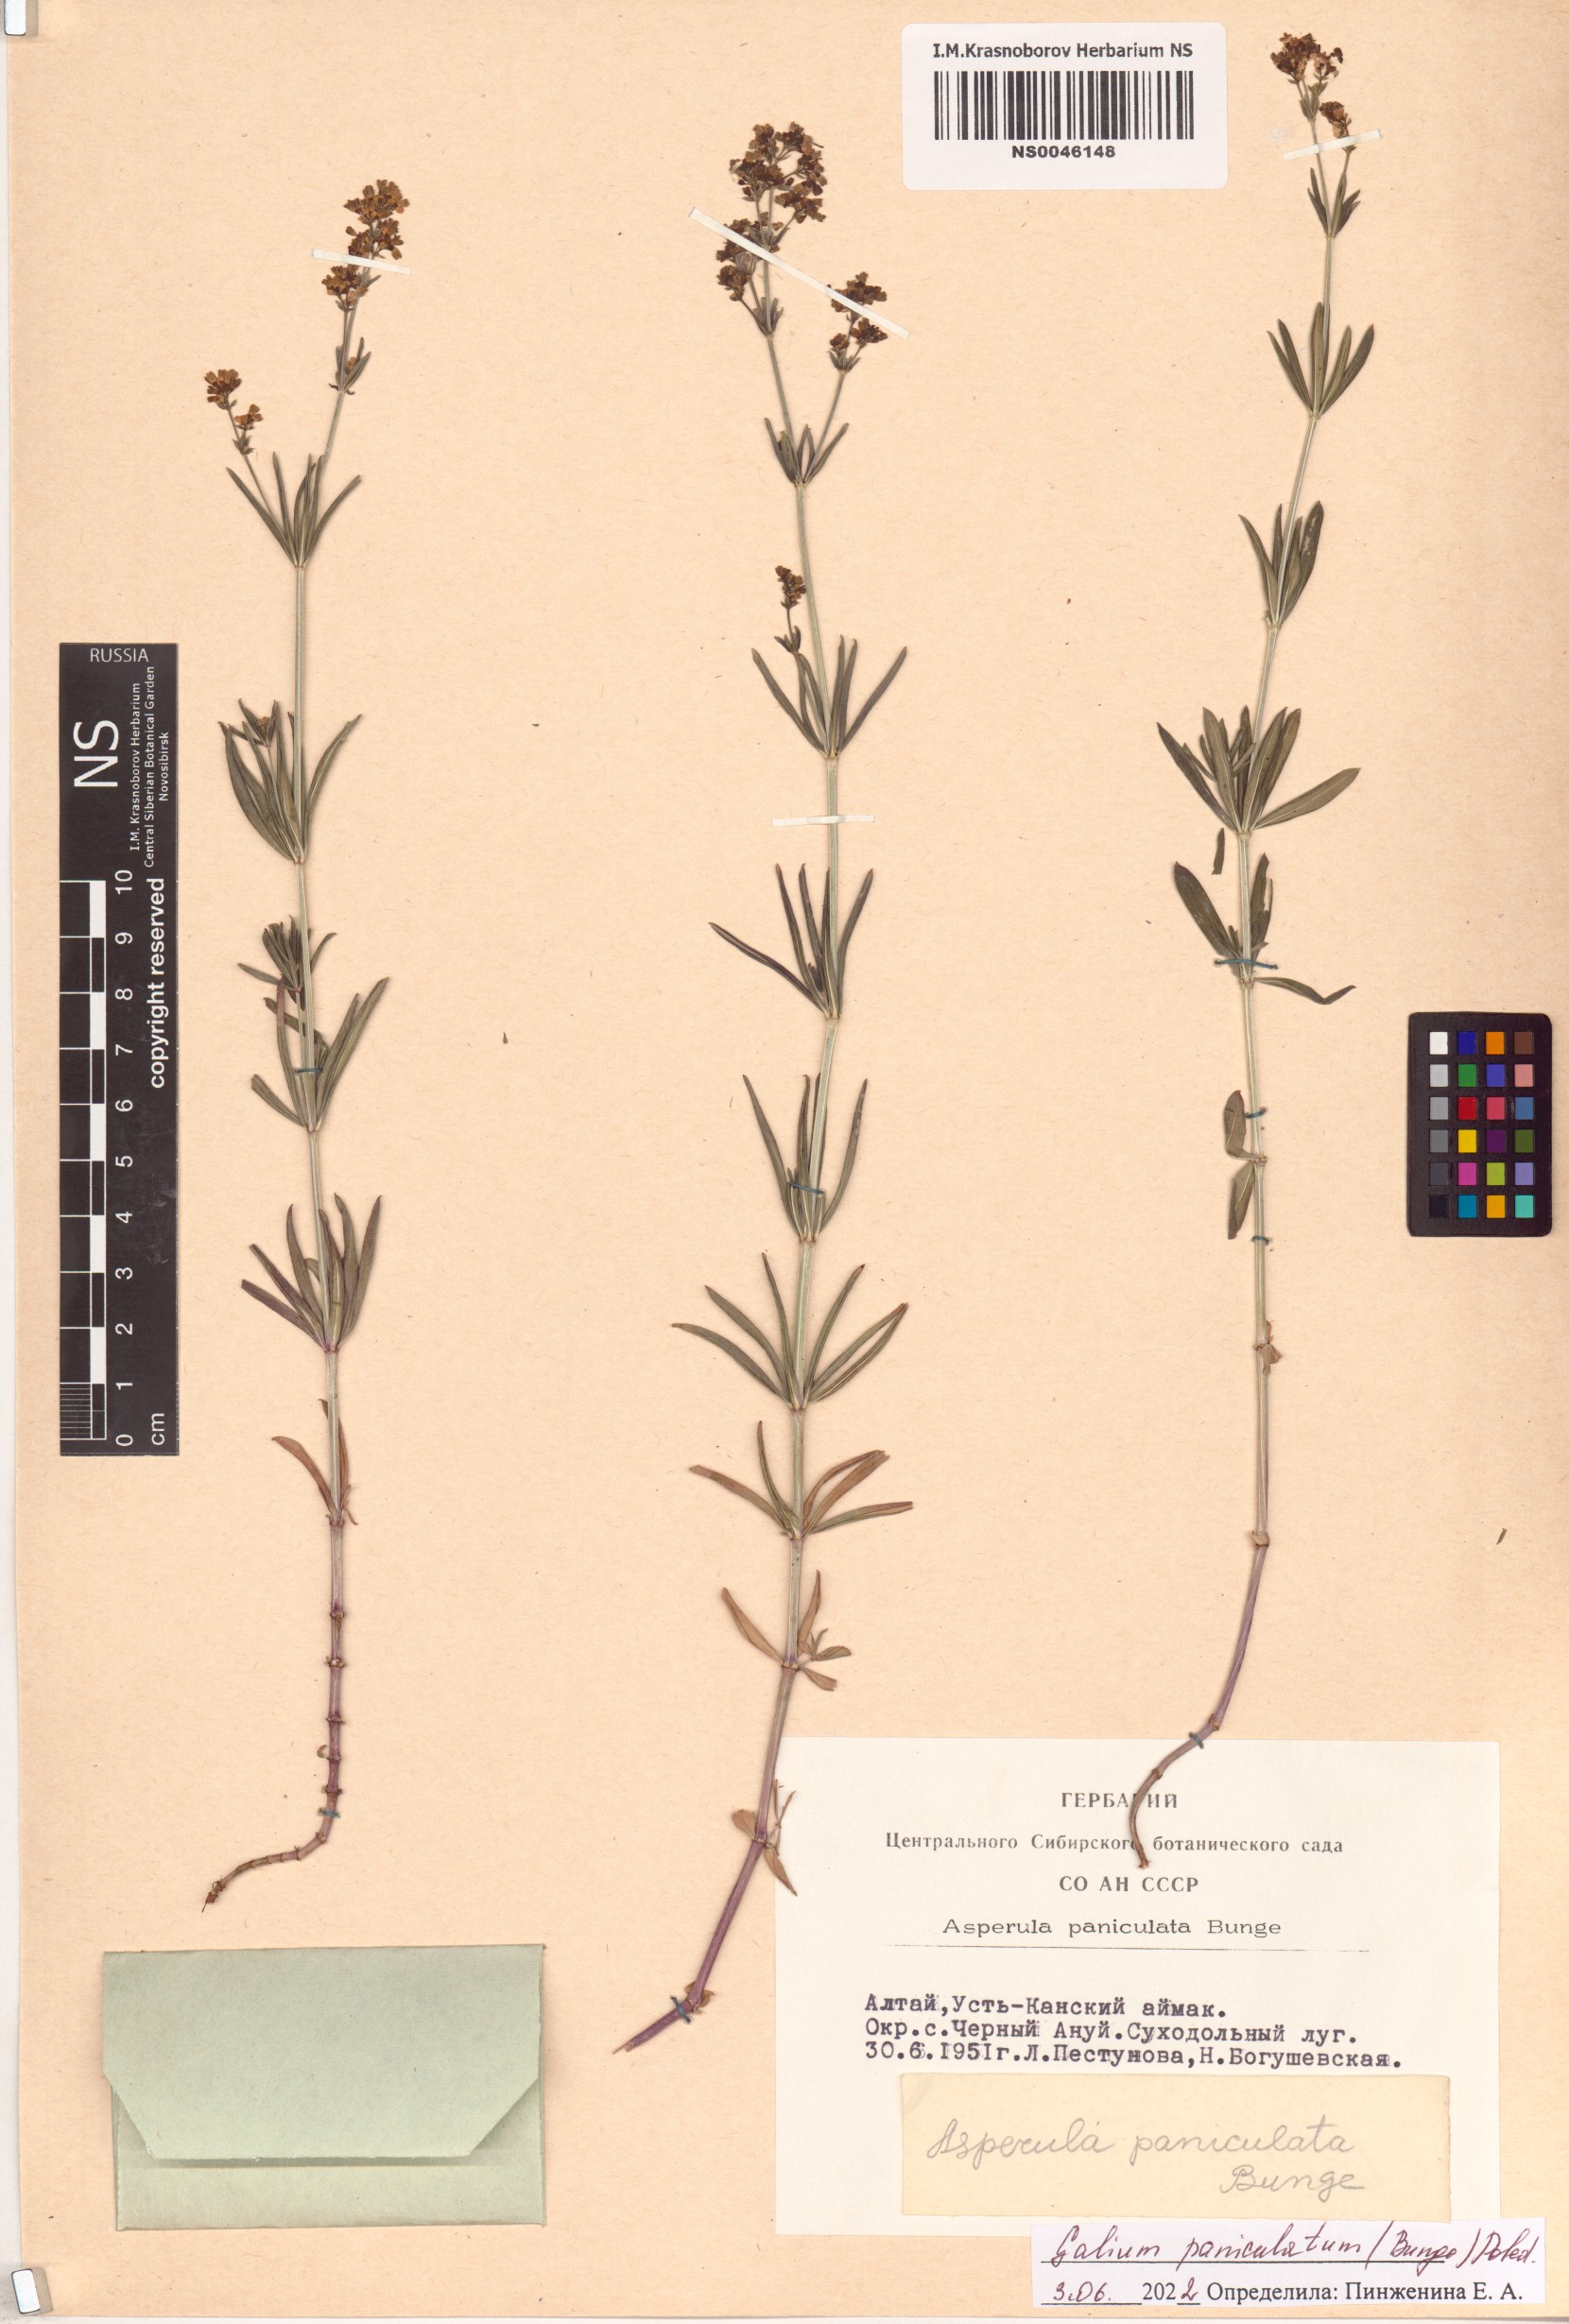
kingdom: Plantae
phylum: Tracheophyta
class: Magnoliopsida
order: Gentianales
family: Rubiaceae
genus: Galium
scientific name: Galium paniculatum
